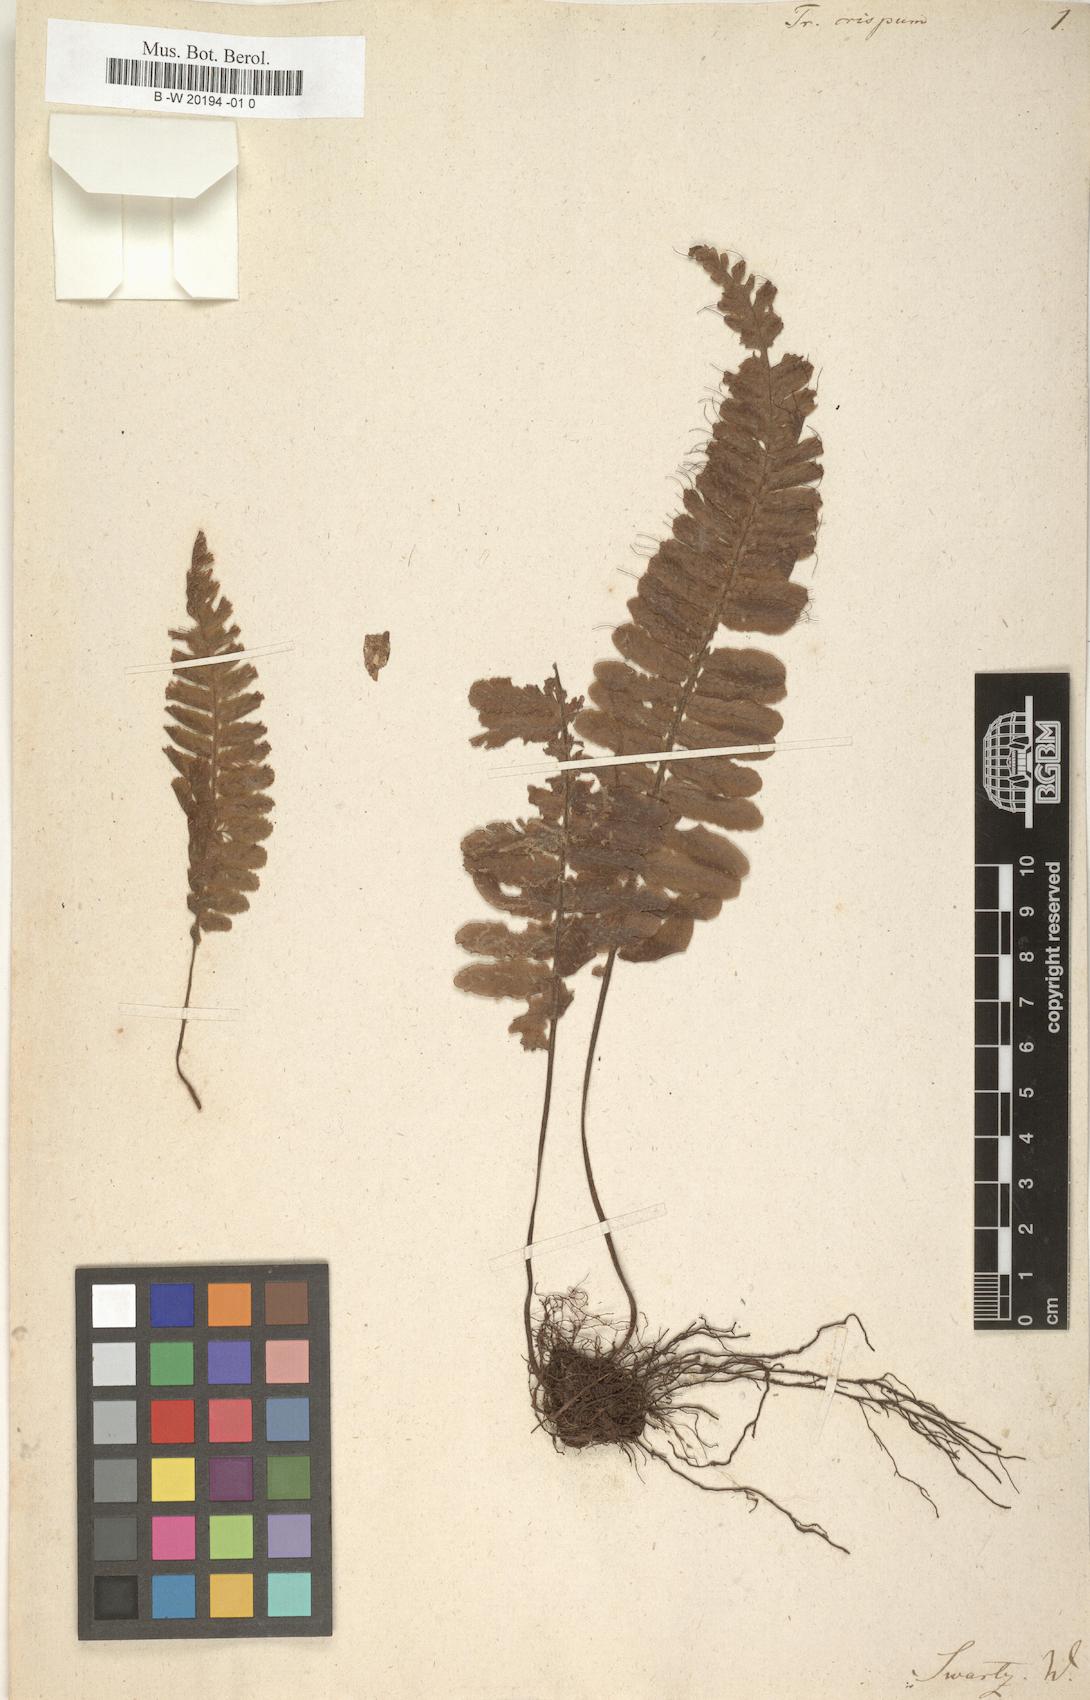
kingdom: Plantae
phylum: Tracheophyta
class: Polypodiopsida
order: Hymenophyllales
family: Hymenophyllaceae
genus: Trichomanes
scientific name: Trichomanes crispum
